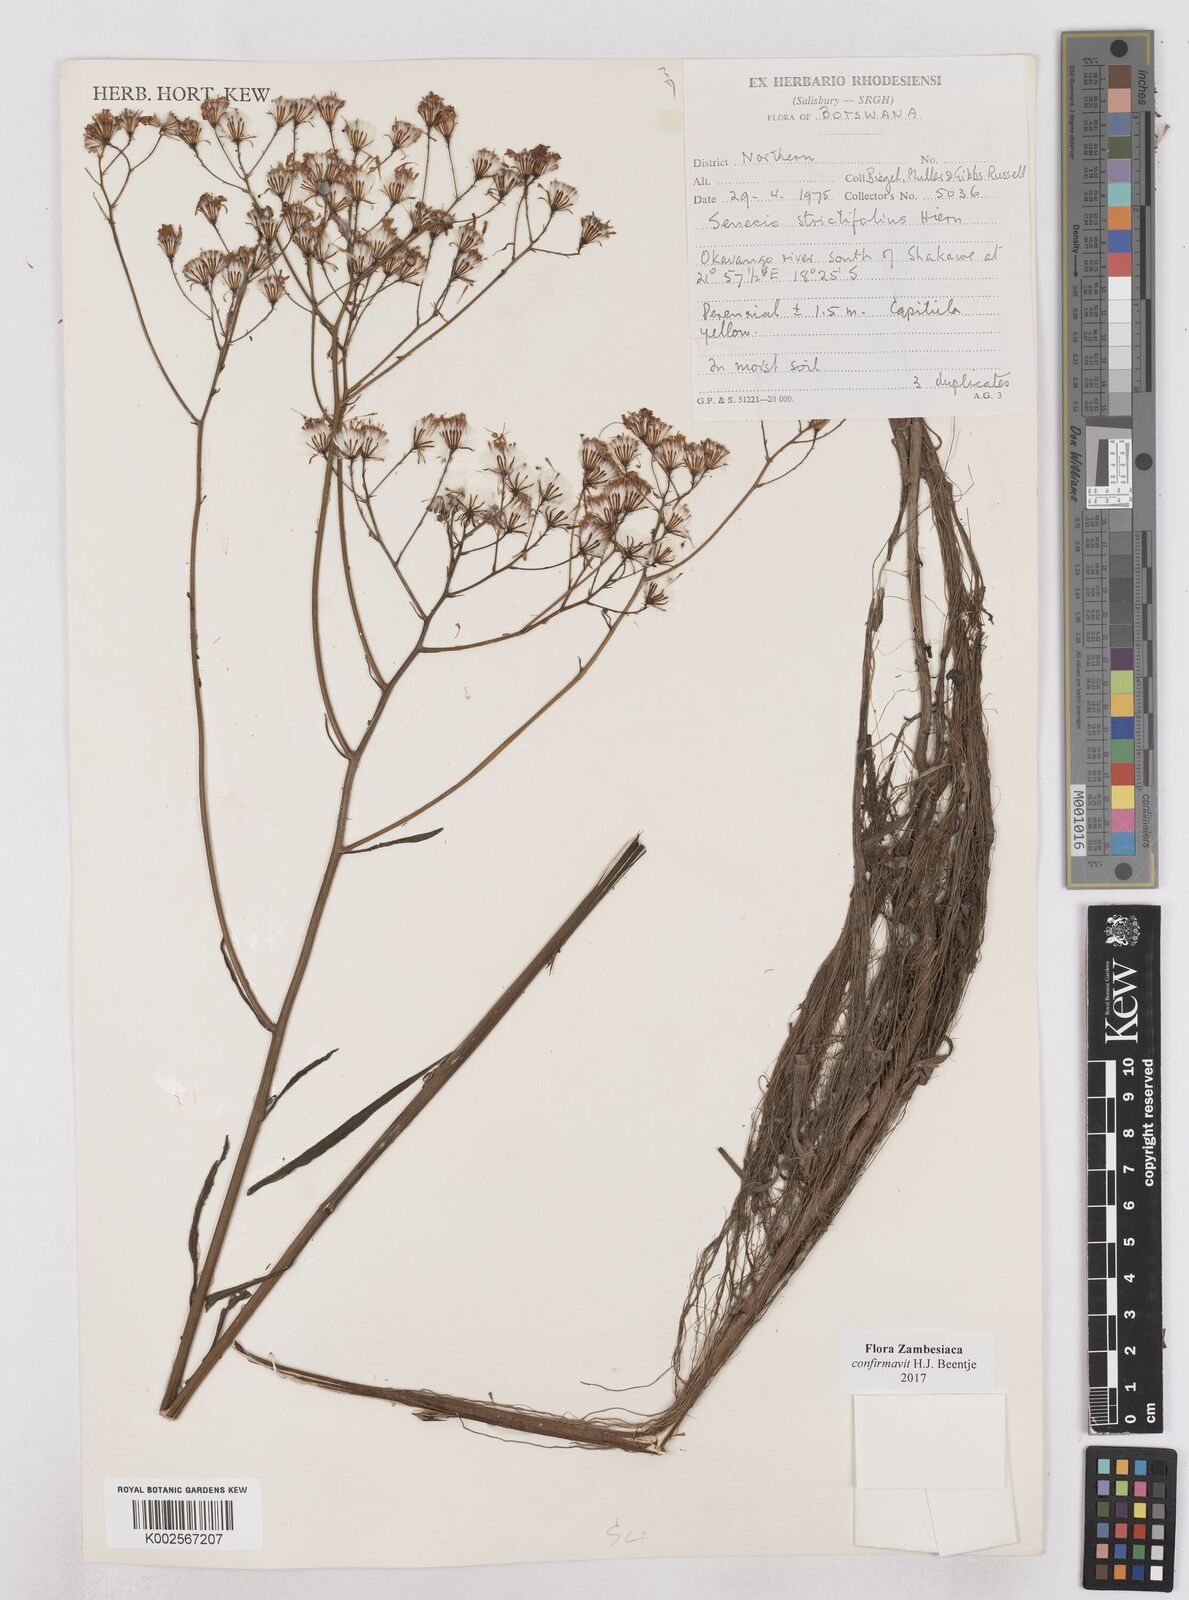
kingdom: Plantae
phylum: Tracheophyta
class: Magnoliopsida
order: Asterales
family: Asteraceae
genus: Senecio
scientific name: Senecio strictifolius
